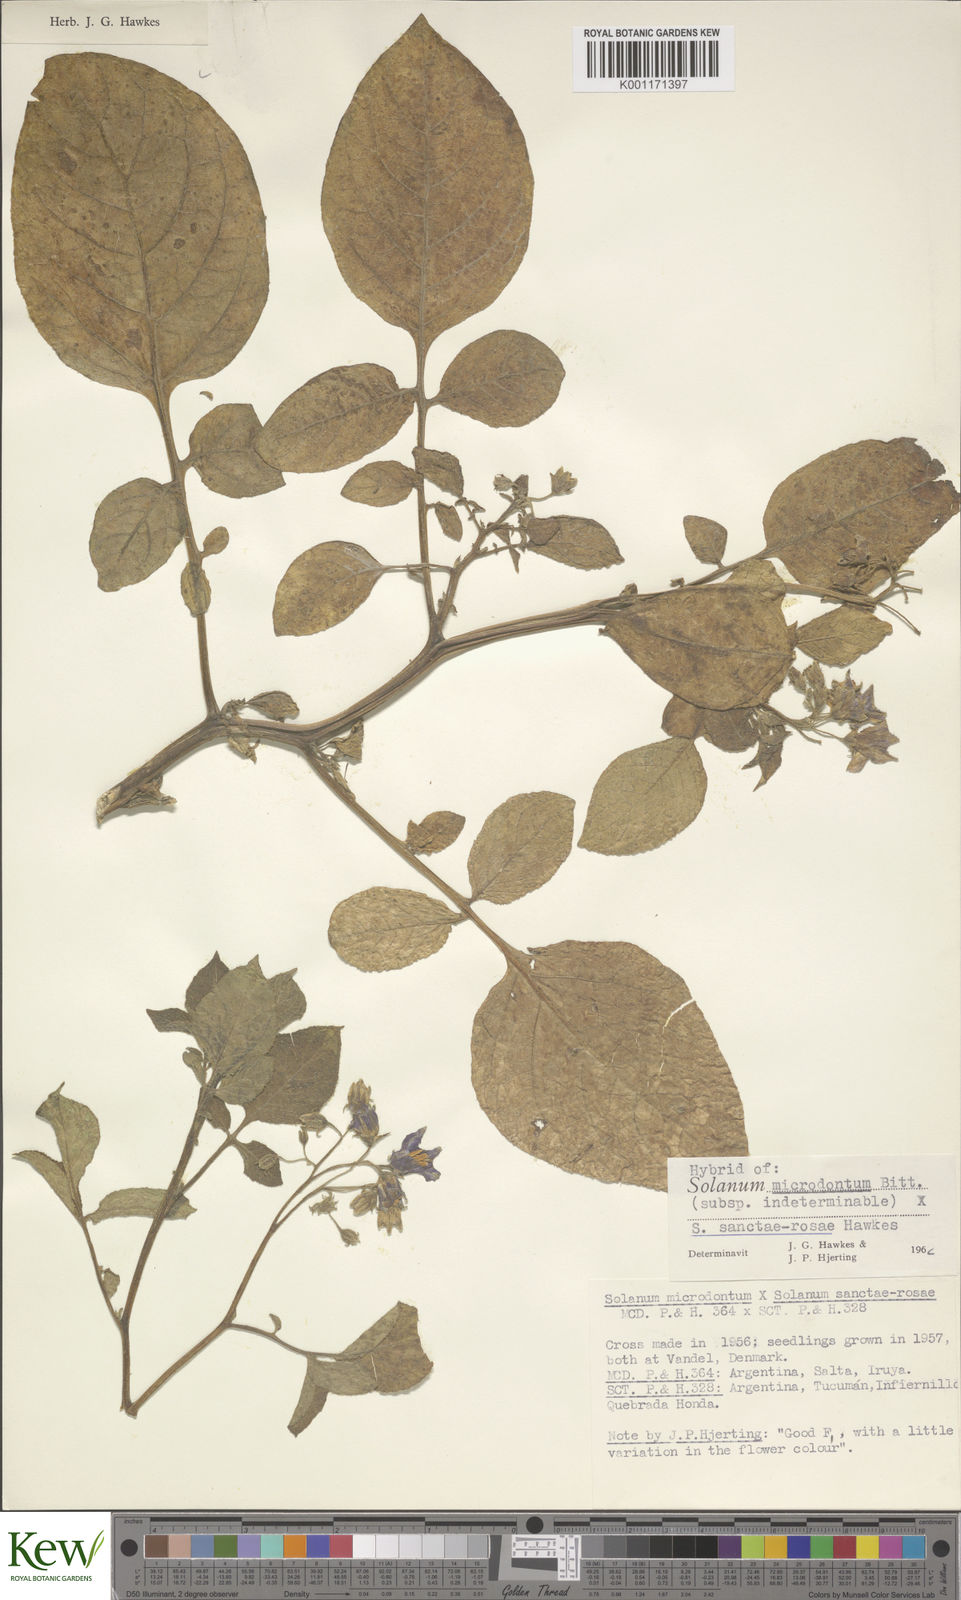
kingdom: Plantae
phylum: Tracheophyta
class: Magnoliopsida
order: Solanales
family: Solanaceae
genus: Solanum
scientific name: Solanum boliviense
